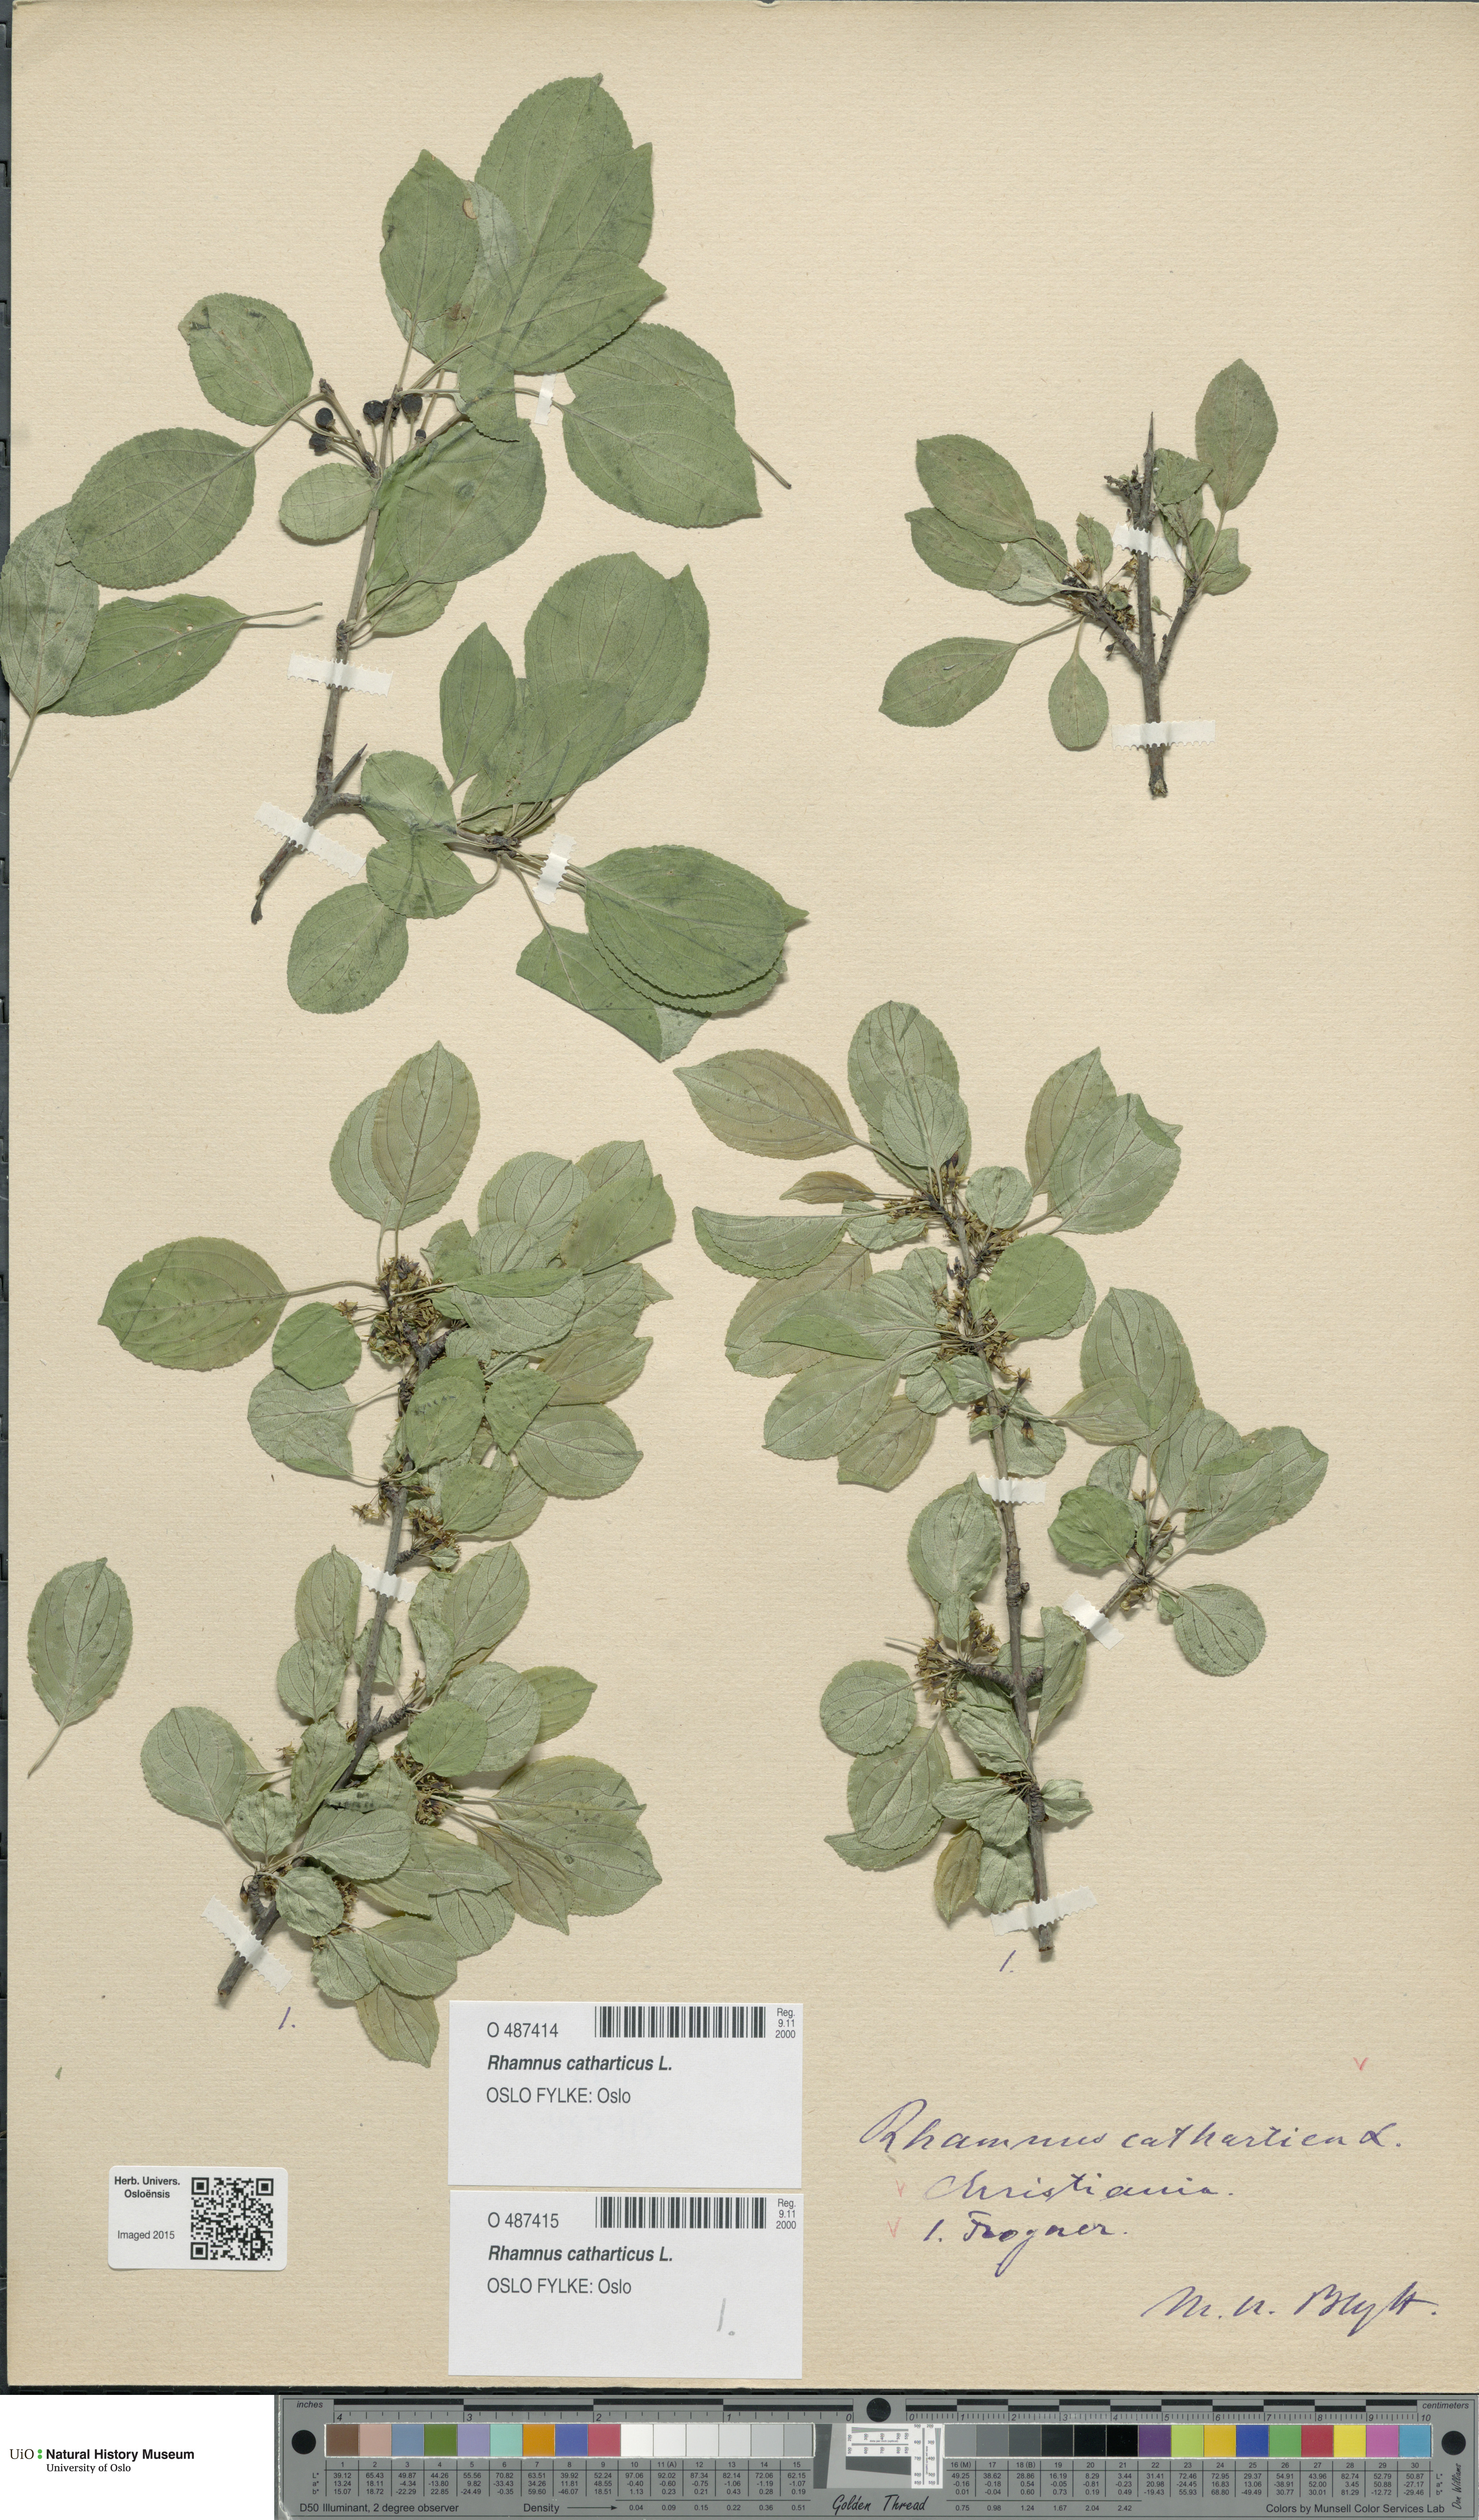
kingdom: Plantae
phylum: Tracheophyta
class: Magnoliopsida
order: Rosales
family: Rhamnaceae
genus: Rhamnus
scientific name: Rhamnus cathartica
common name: Common buckthorn
